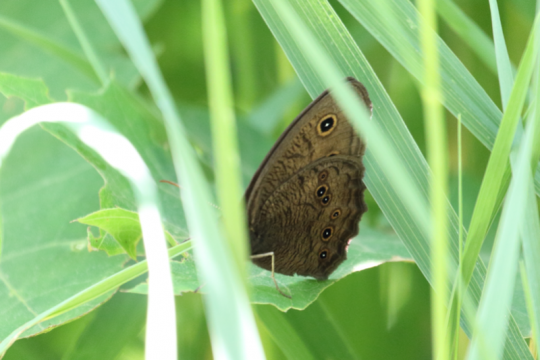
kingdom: Animalia
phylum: Arthropoda
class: Insecta
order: Lepidoptera
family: Nymphalidae
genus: Cercyonis
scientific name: Cercyonis pegala
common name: Common Wood-Nymph
